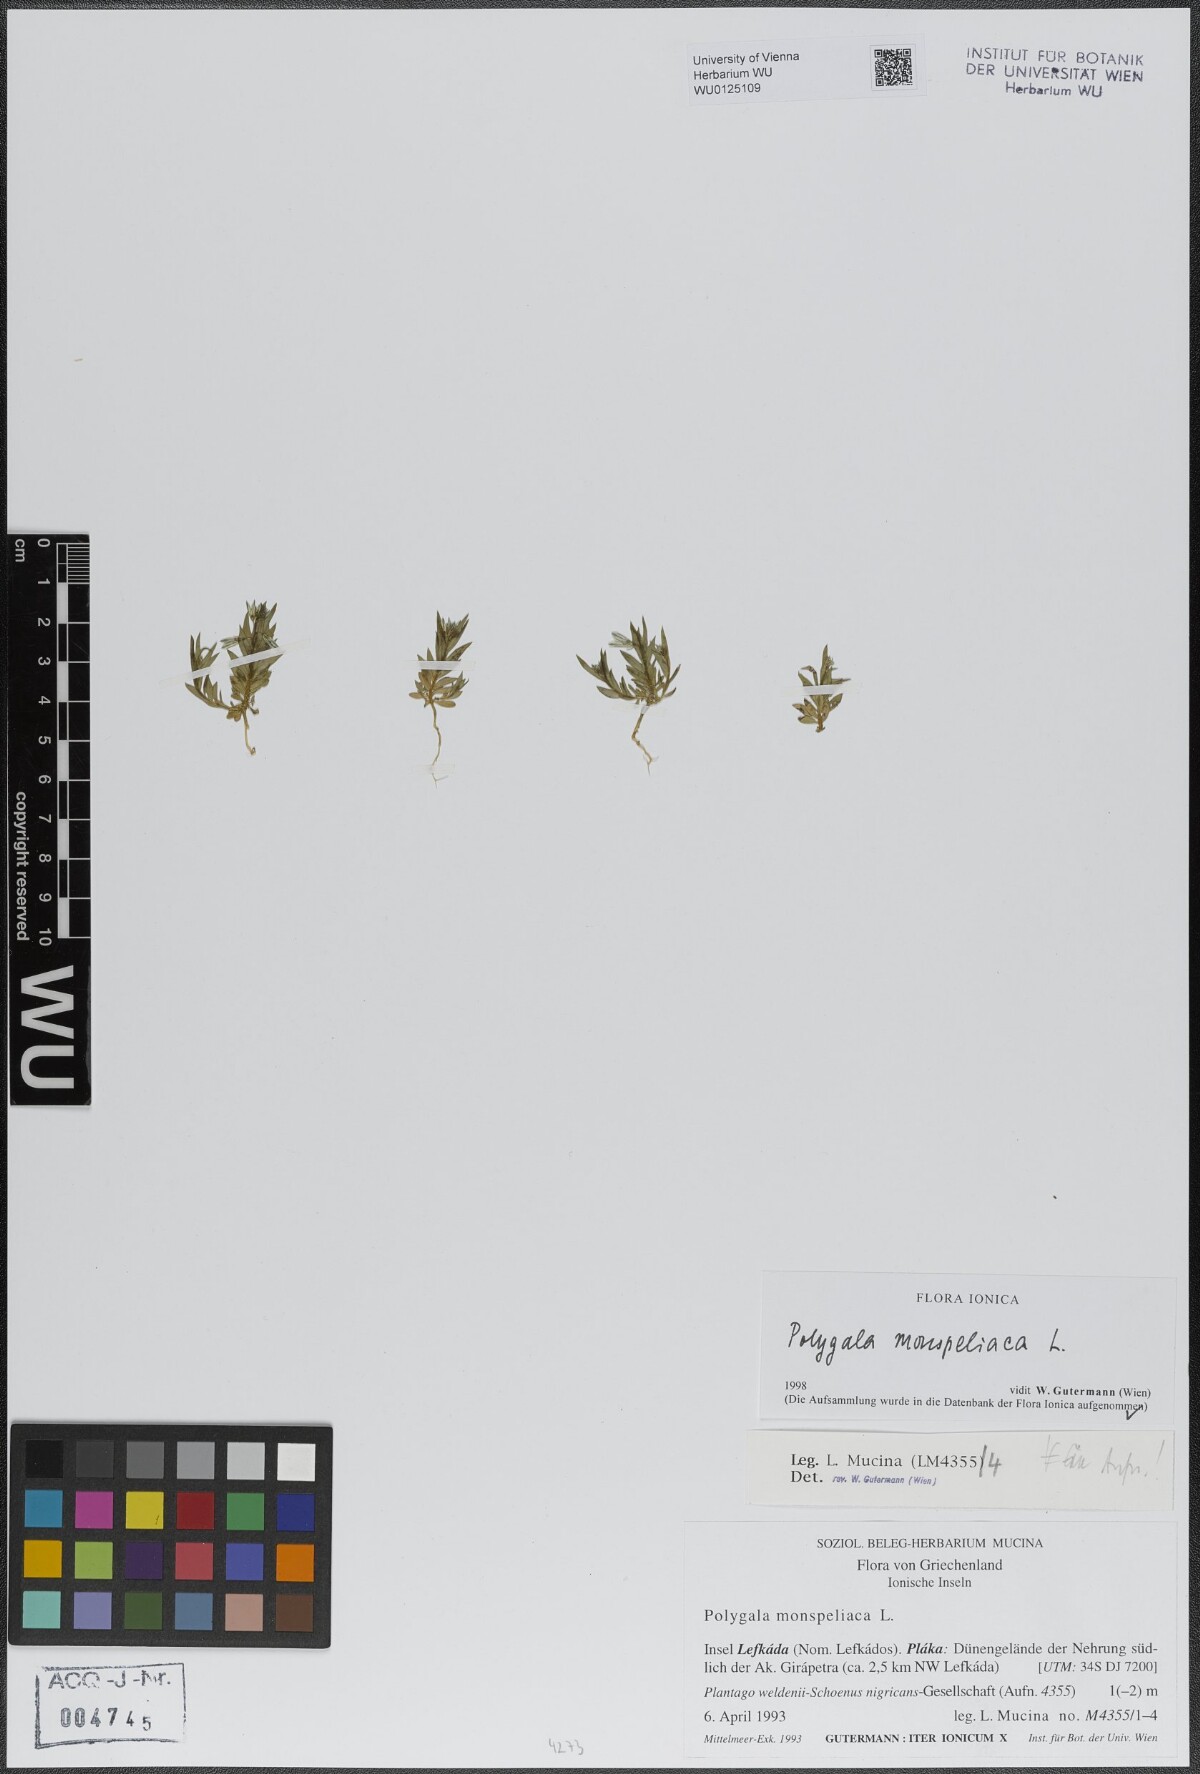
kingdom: Plantae
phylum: Tracheophyta
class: Magnoliopsida
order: Fabales
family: Polygalaceae
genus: Polygala
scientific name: Polygala monspeliaca
